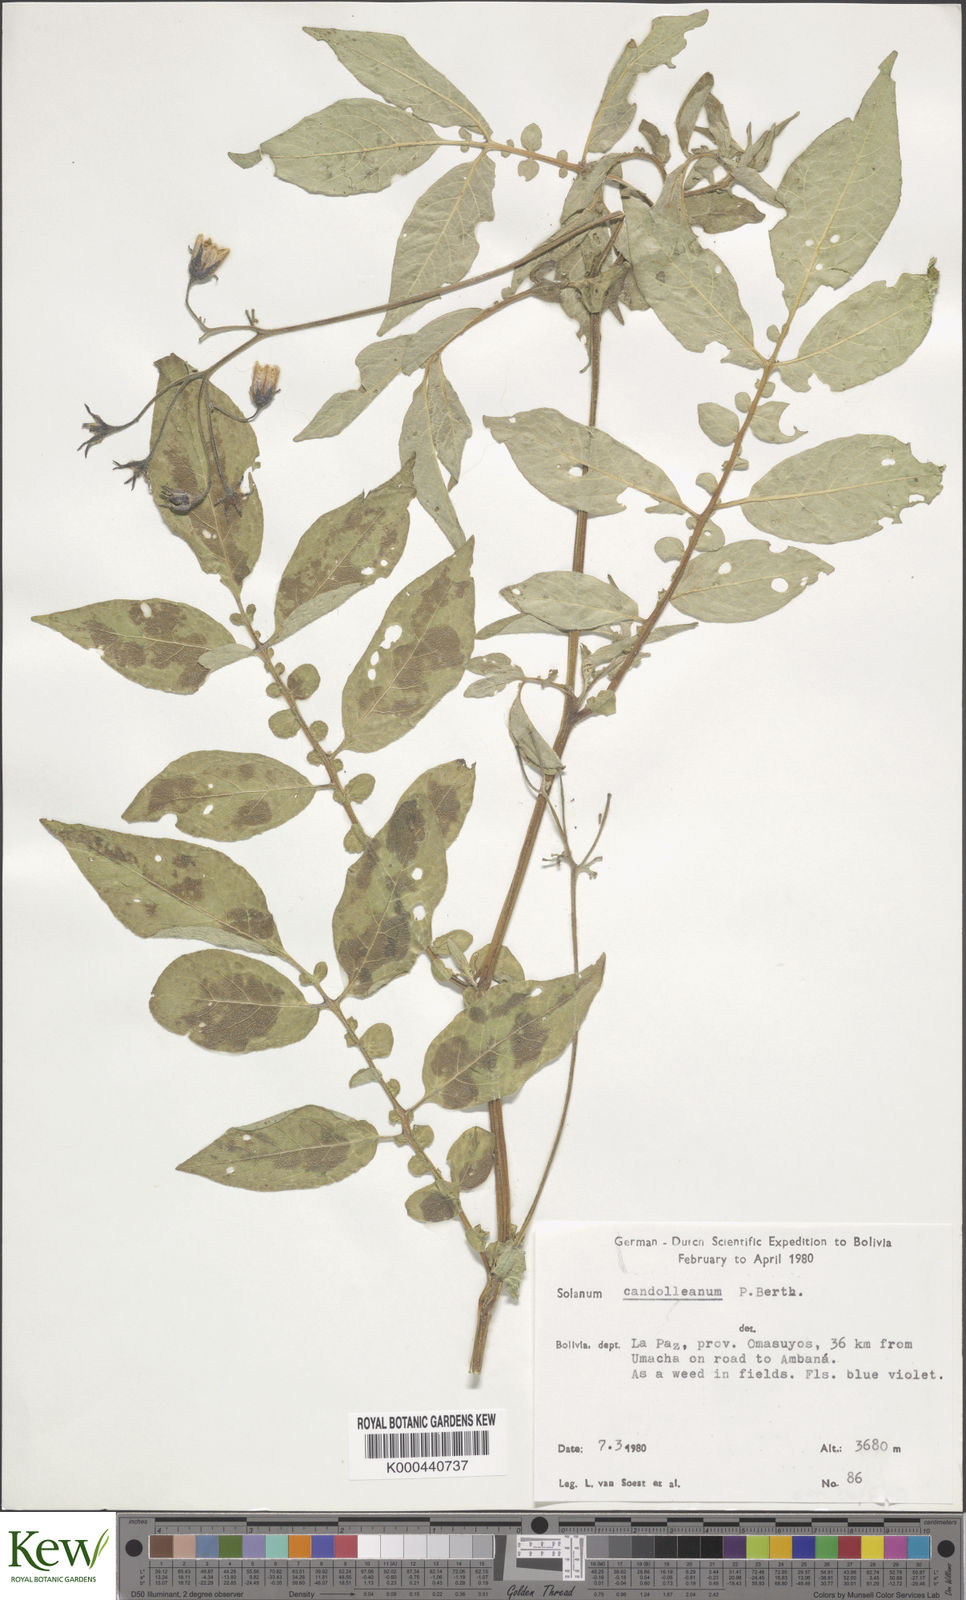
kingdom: Plantae
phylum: Tracheophyta
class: Magnoliopsida
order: Solanales
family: Solanaceae
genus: Solanum
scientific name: Solanum brevicaule
